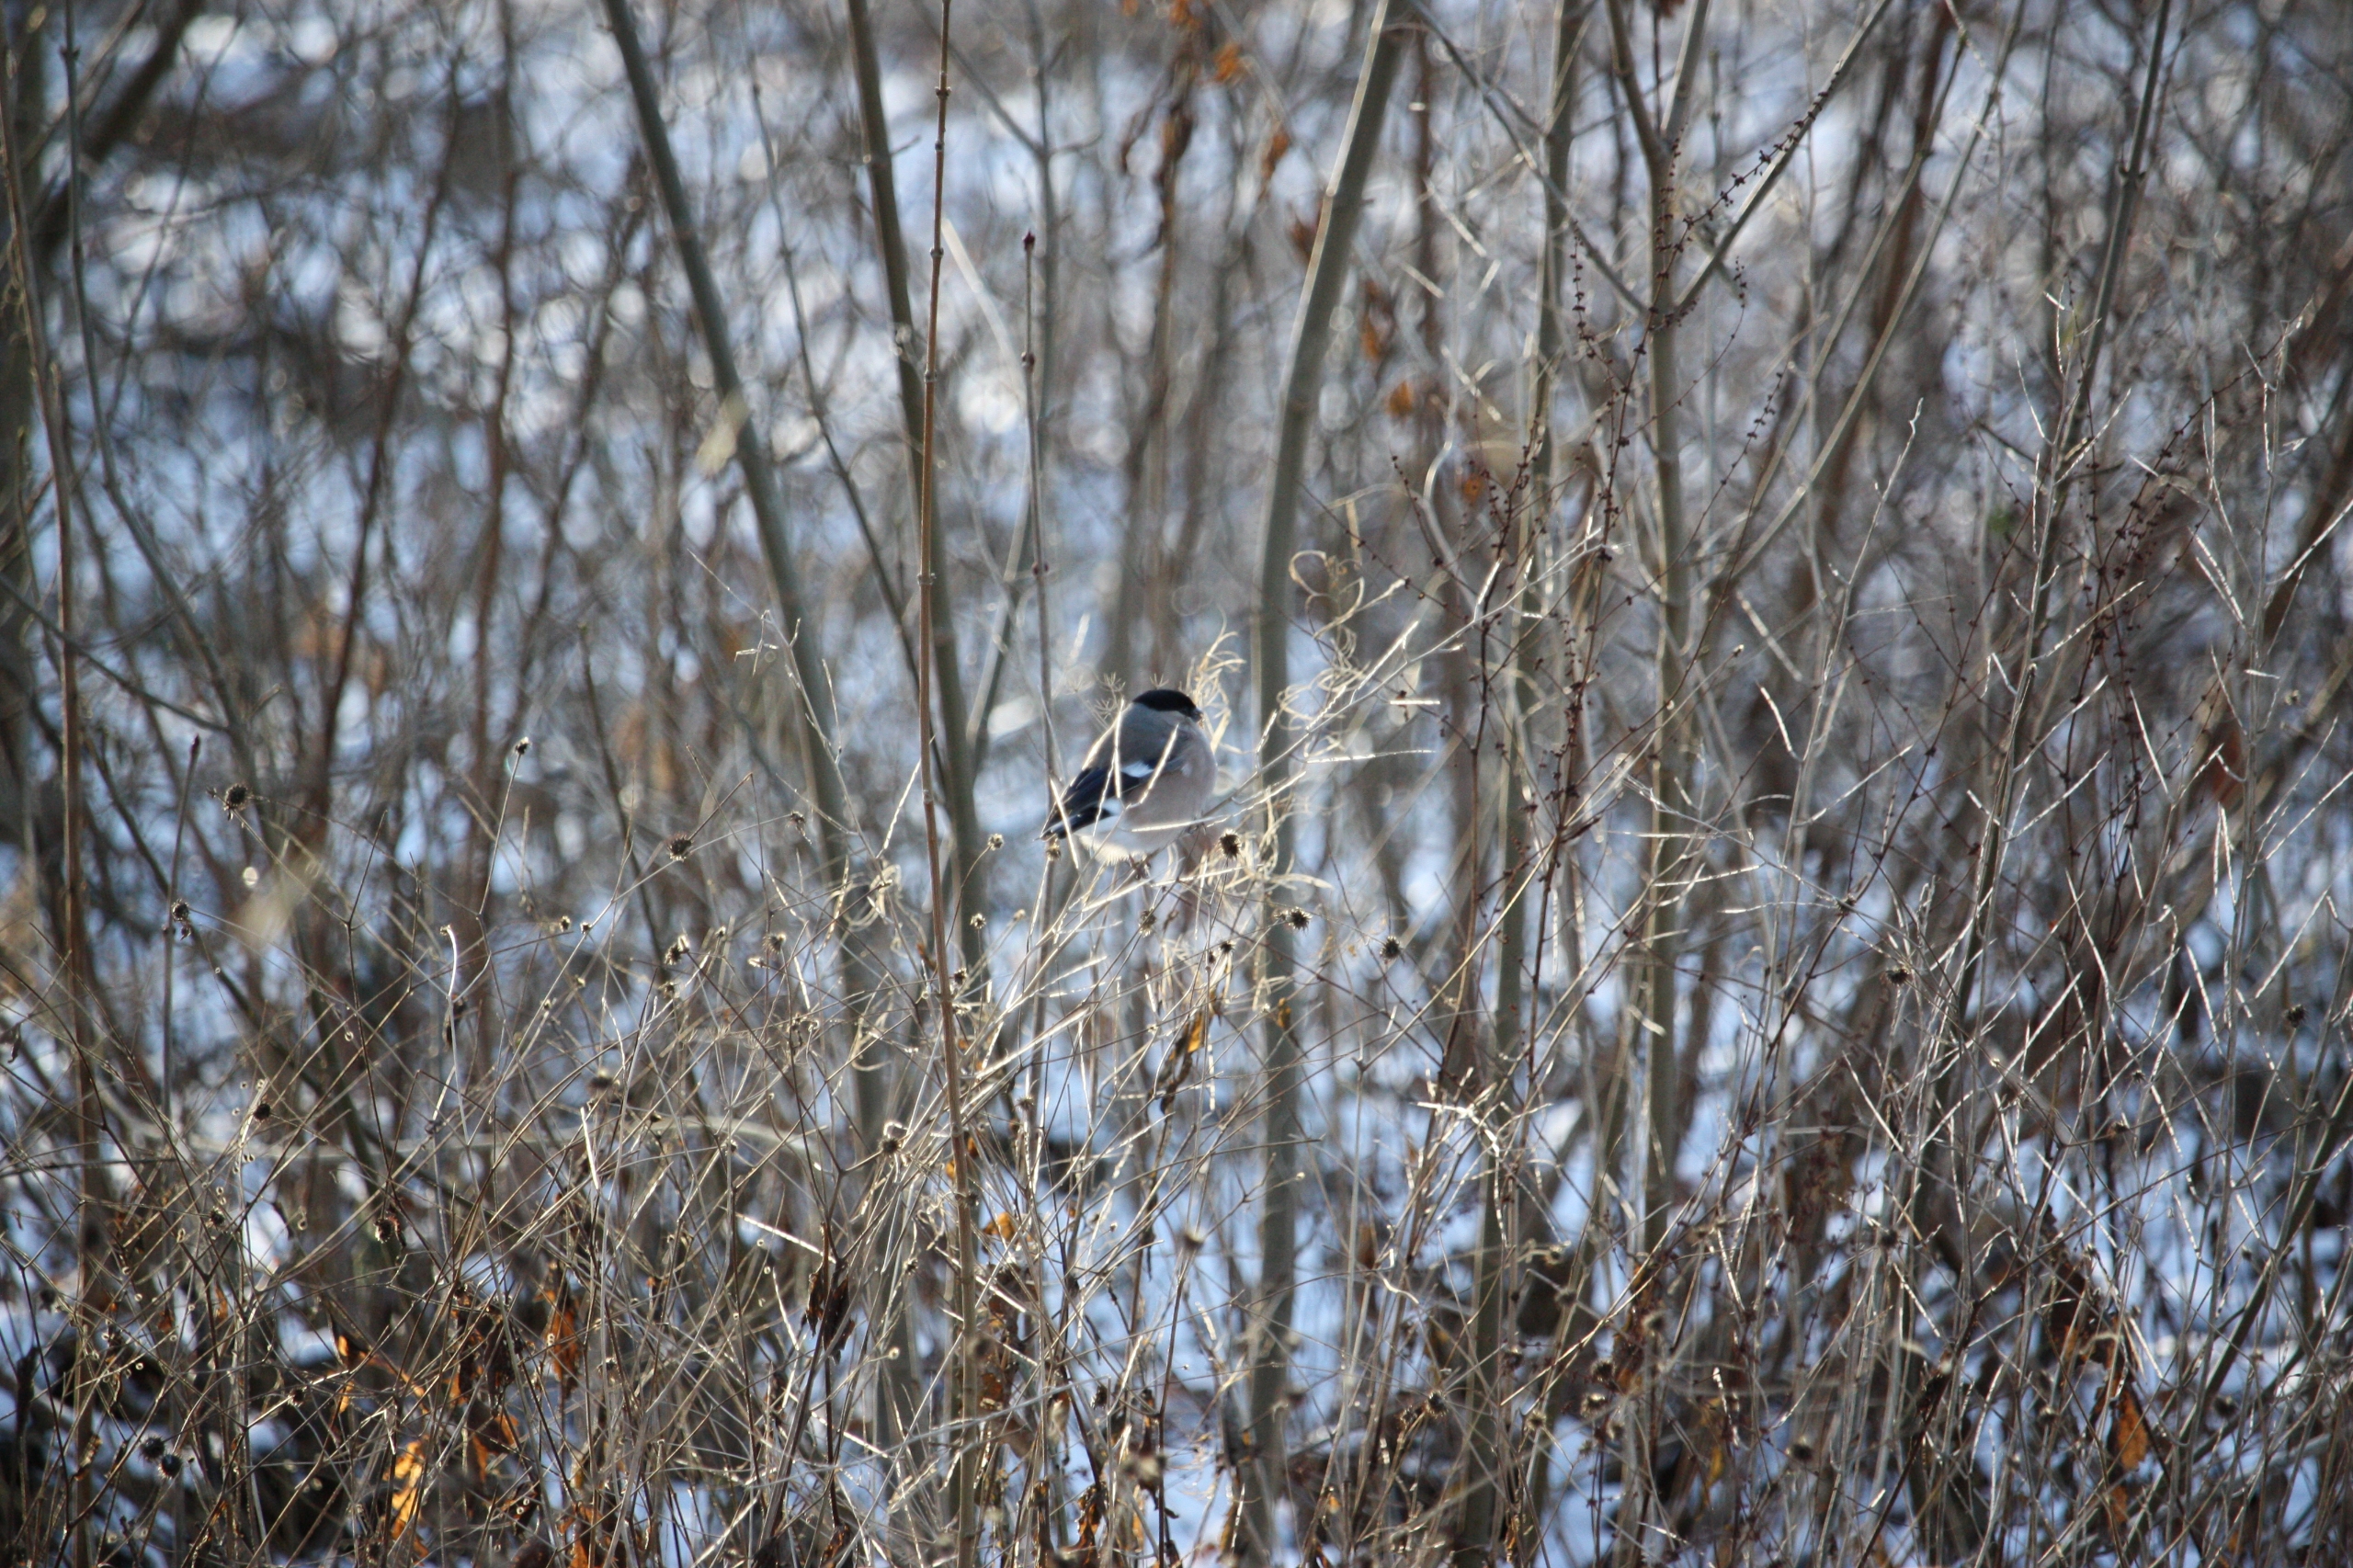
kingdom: Animalia
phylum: Chordata
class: Aves
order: Passeriformes
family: Fringillidae
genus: Pyrrhula
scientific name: Pyrrhula pyrrhula
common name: Dompap
